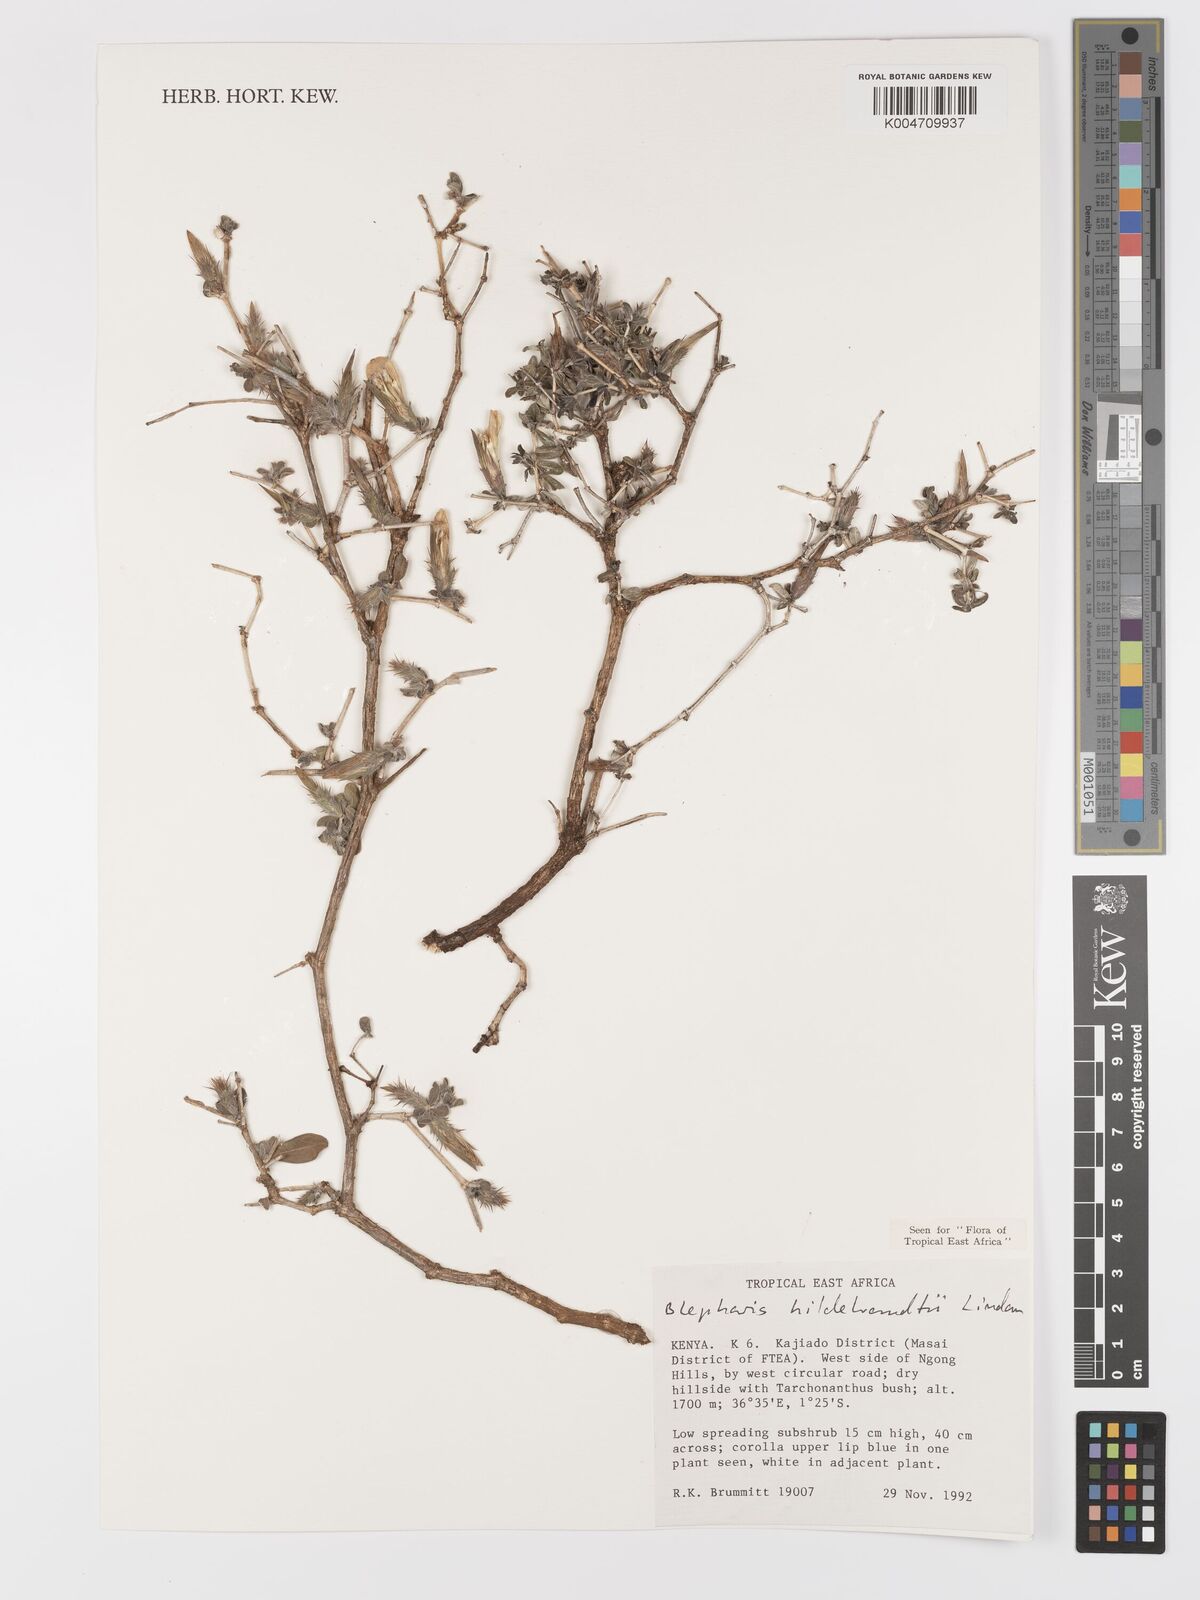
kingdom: Plantae
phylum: Tracheophyta
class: Magnoliopsida
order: Lamiales
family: Acanthaceae
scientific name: Acanthaceae
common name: Acanthaceae
